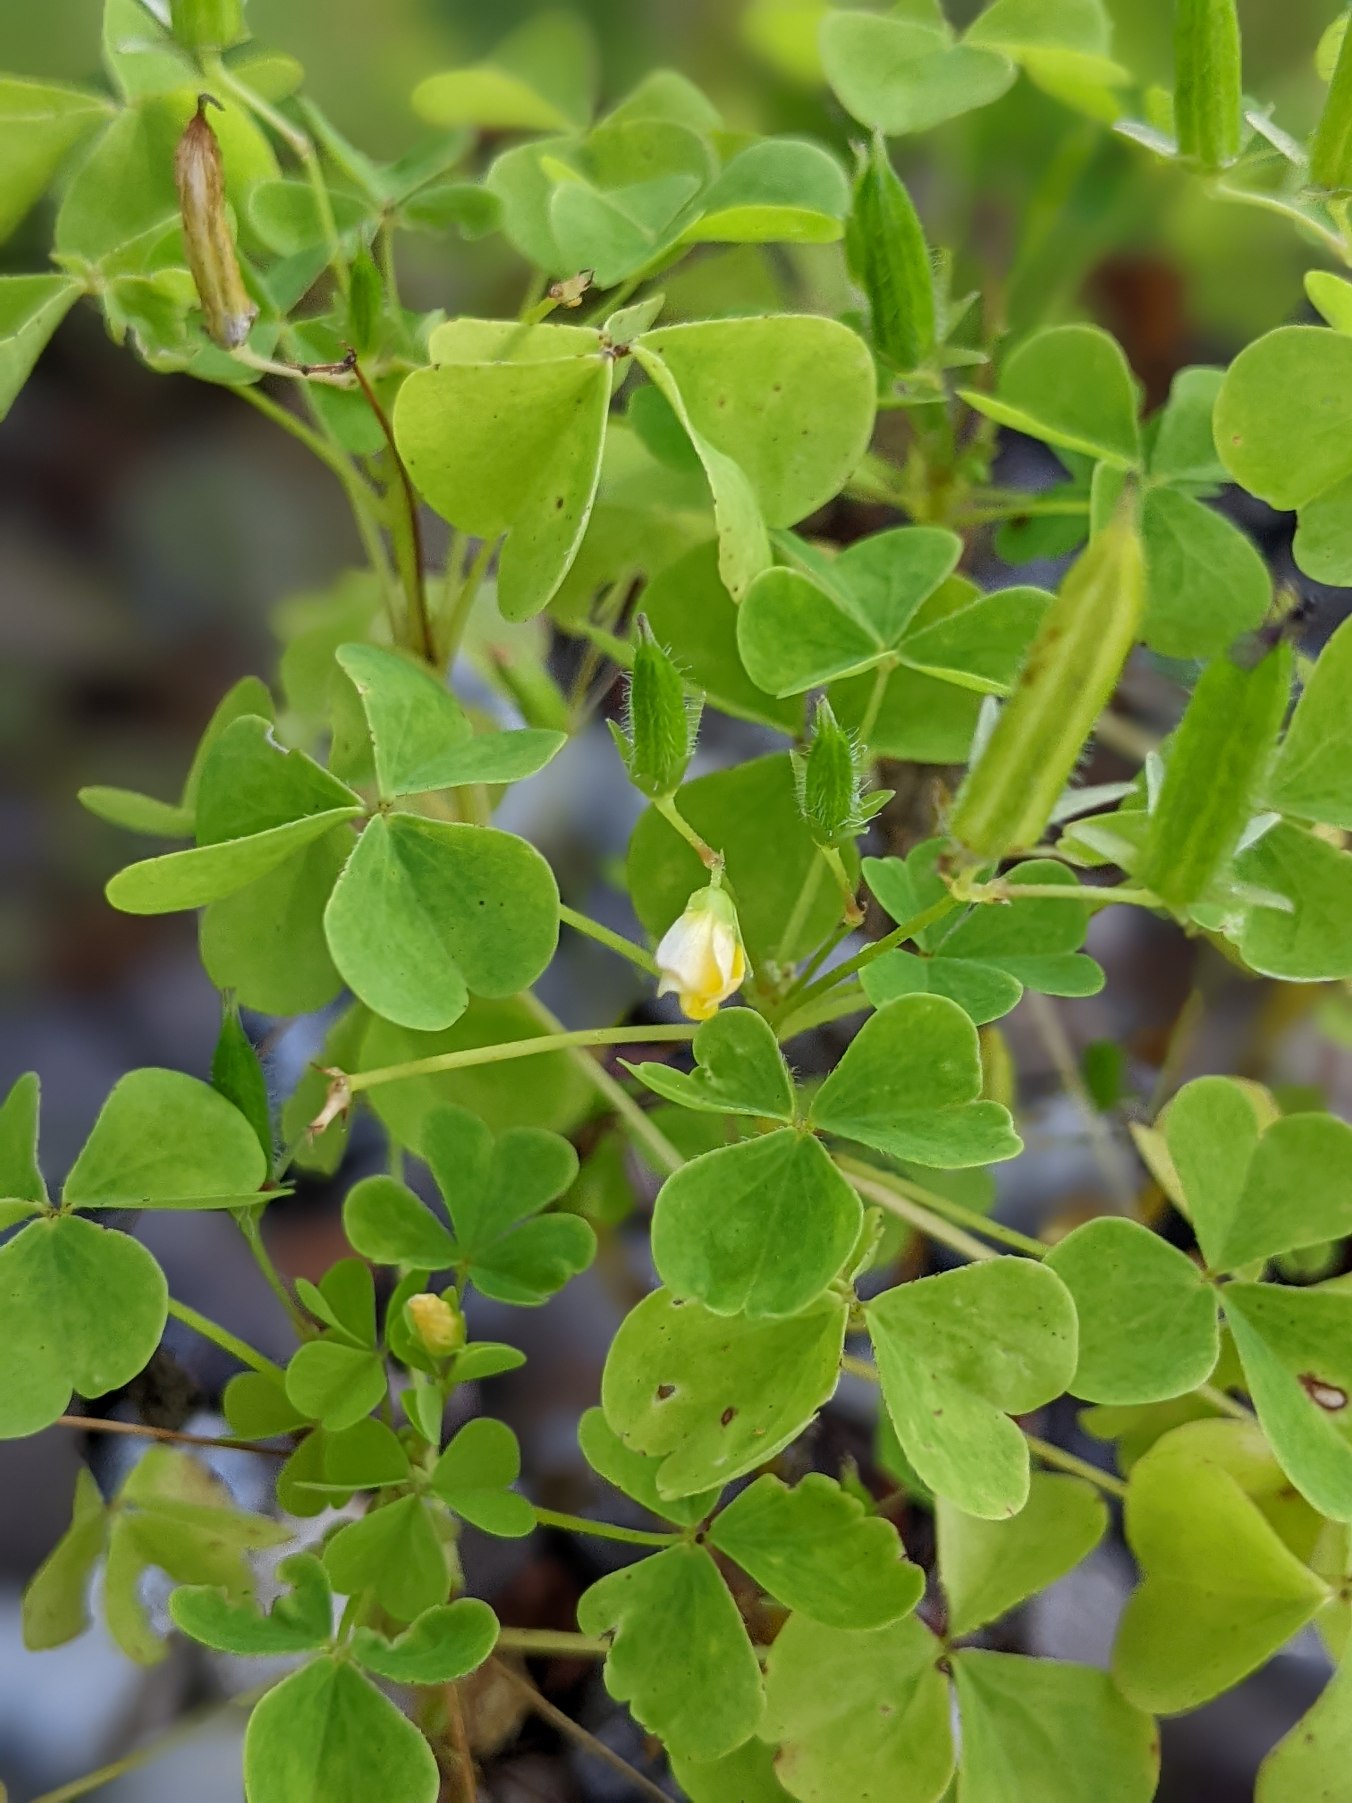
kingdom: Plantae
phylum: Tracheophyta
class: Magnoliopsida
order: Oxalidales
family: Oxalidaceae
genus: Oxalis
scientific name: Oxalis stricta
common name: Rank surkløver
